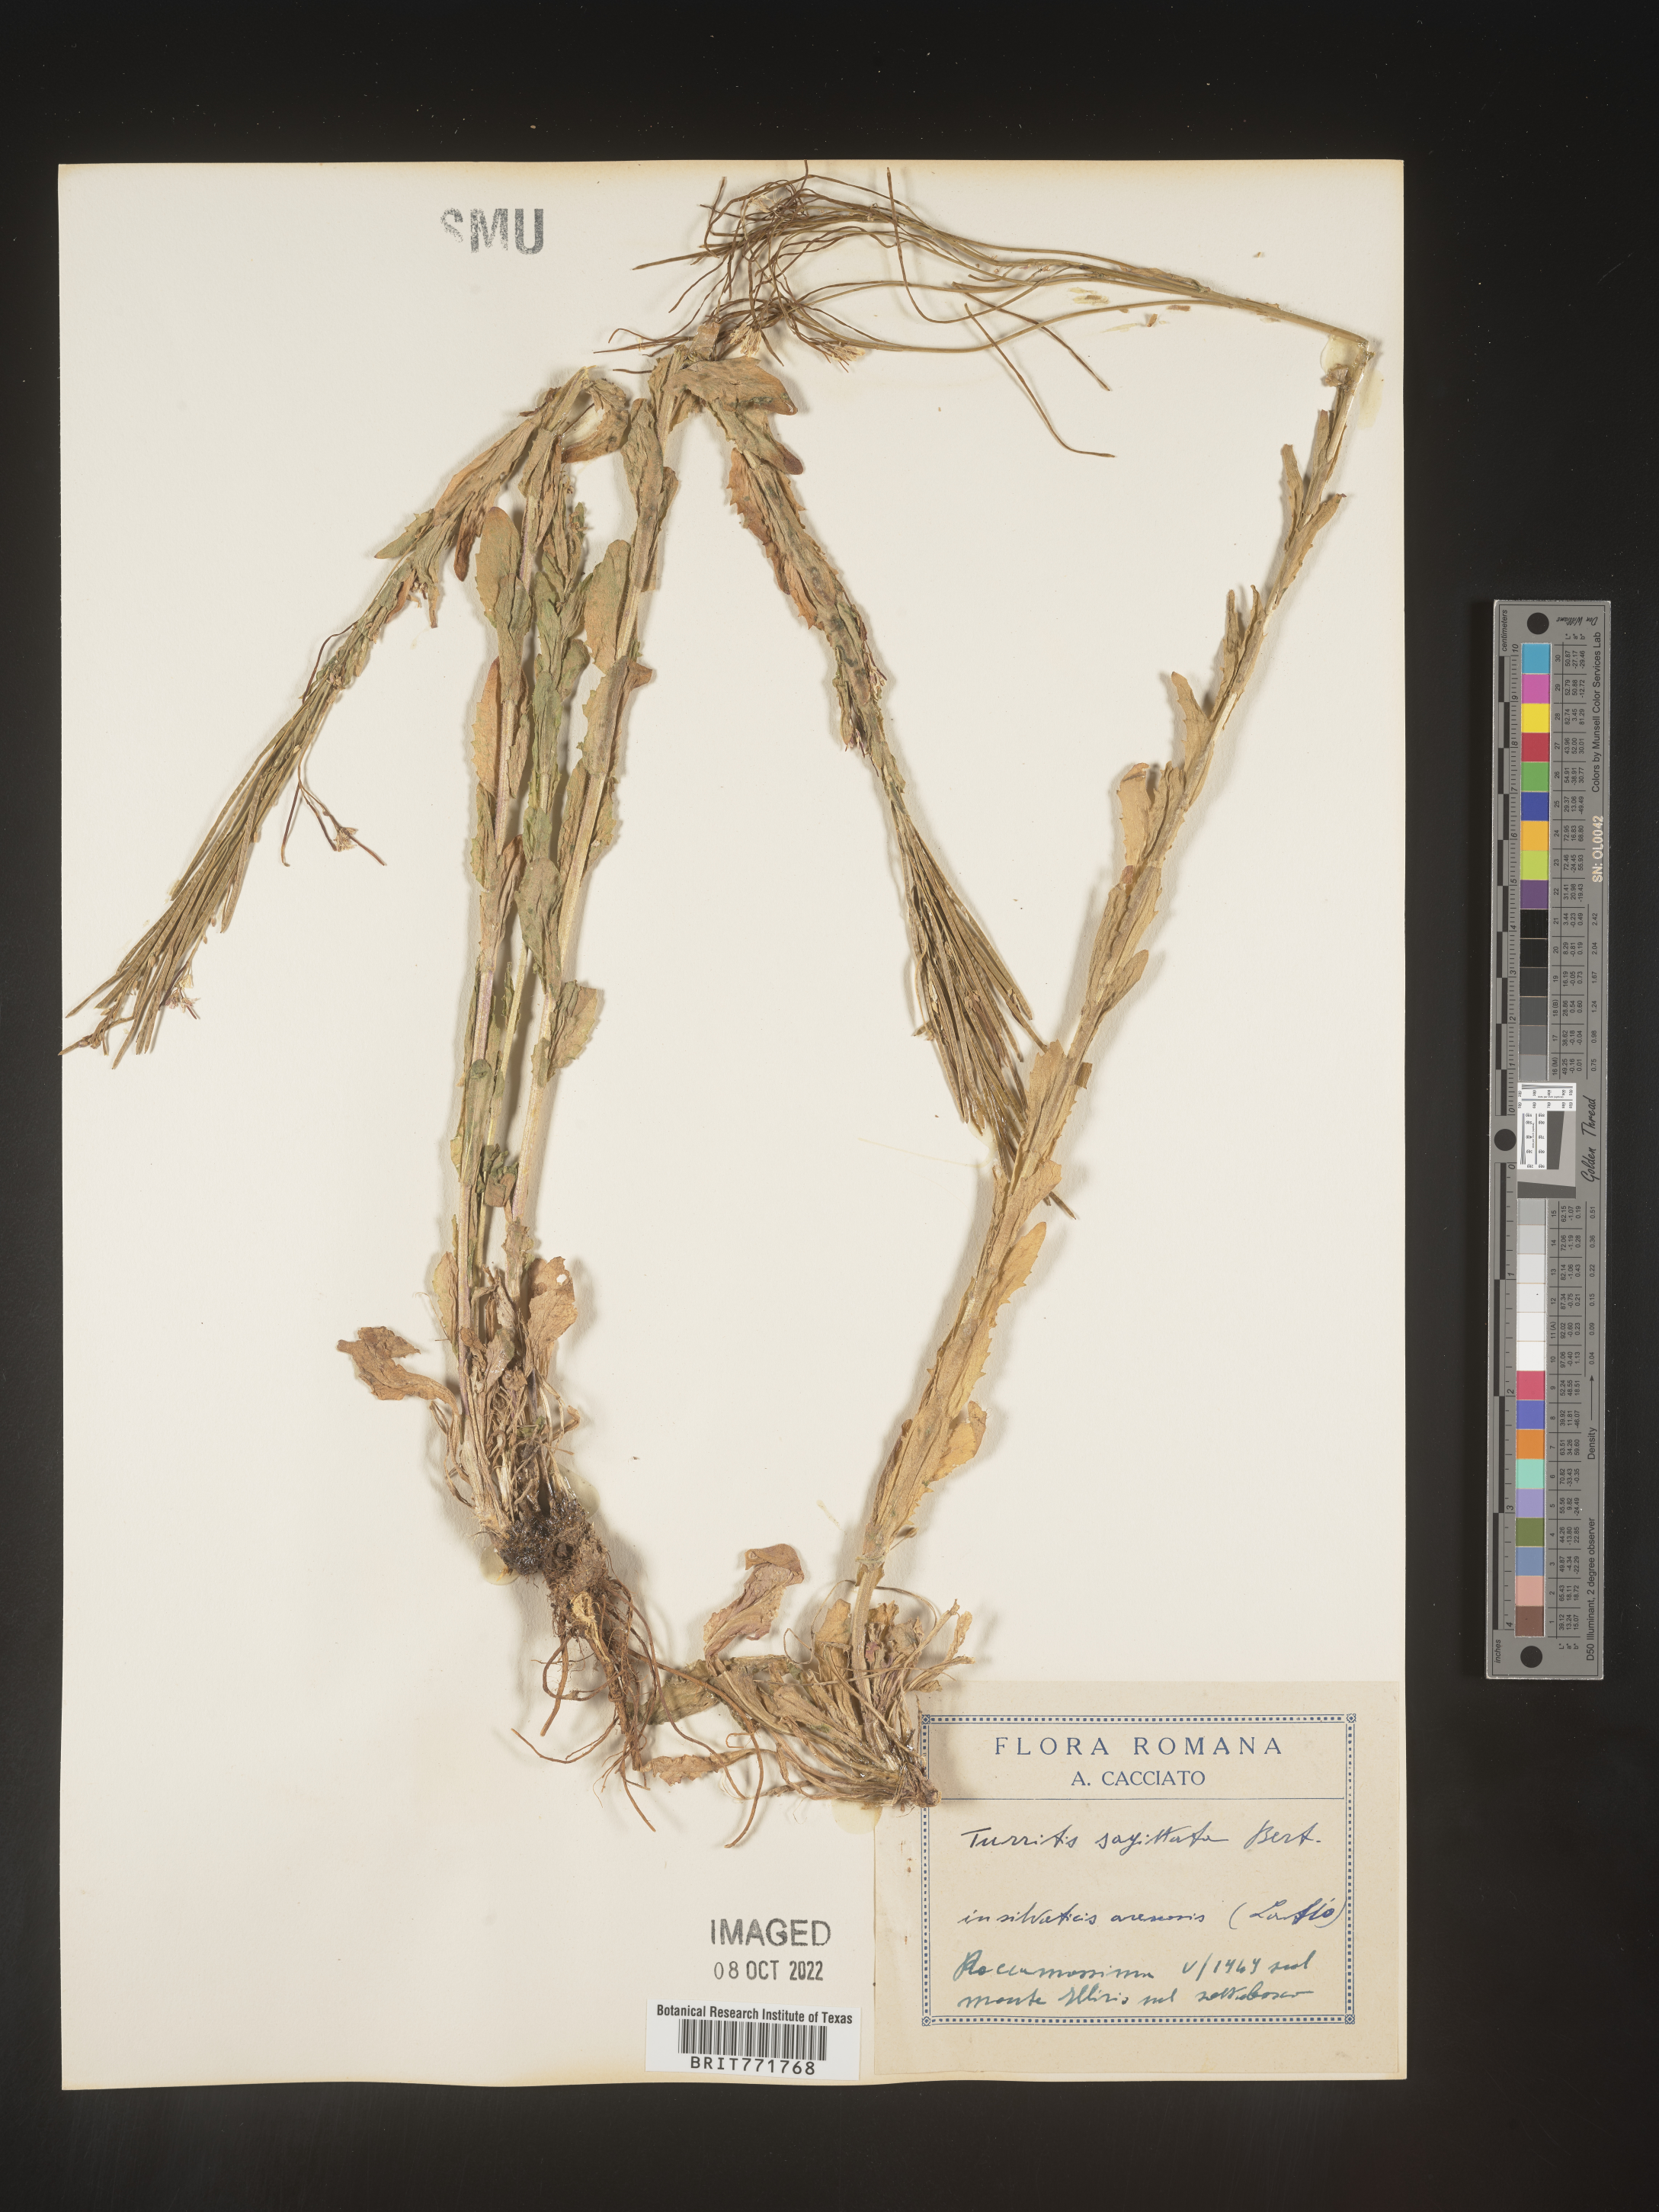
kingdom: Plantae
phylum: Tracheophyta
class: Magnoliopsida
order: Brassicales
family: Brassicaceae
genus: Arabis
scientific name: Arabis
